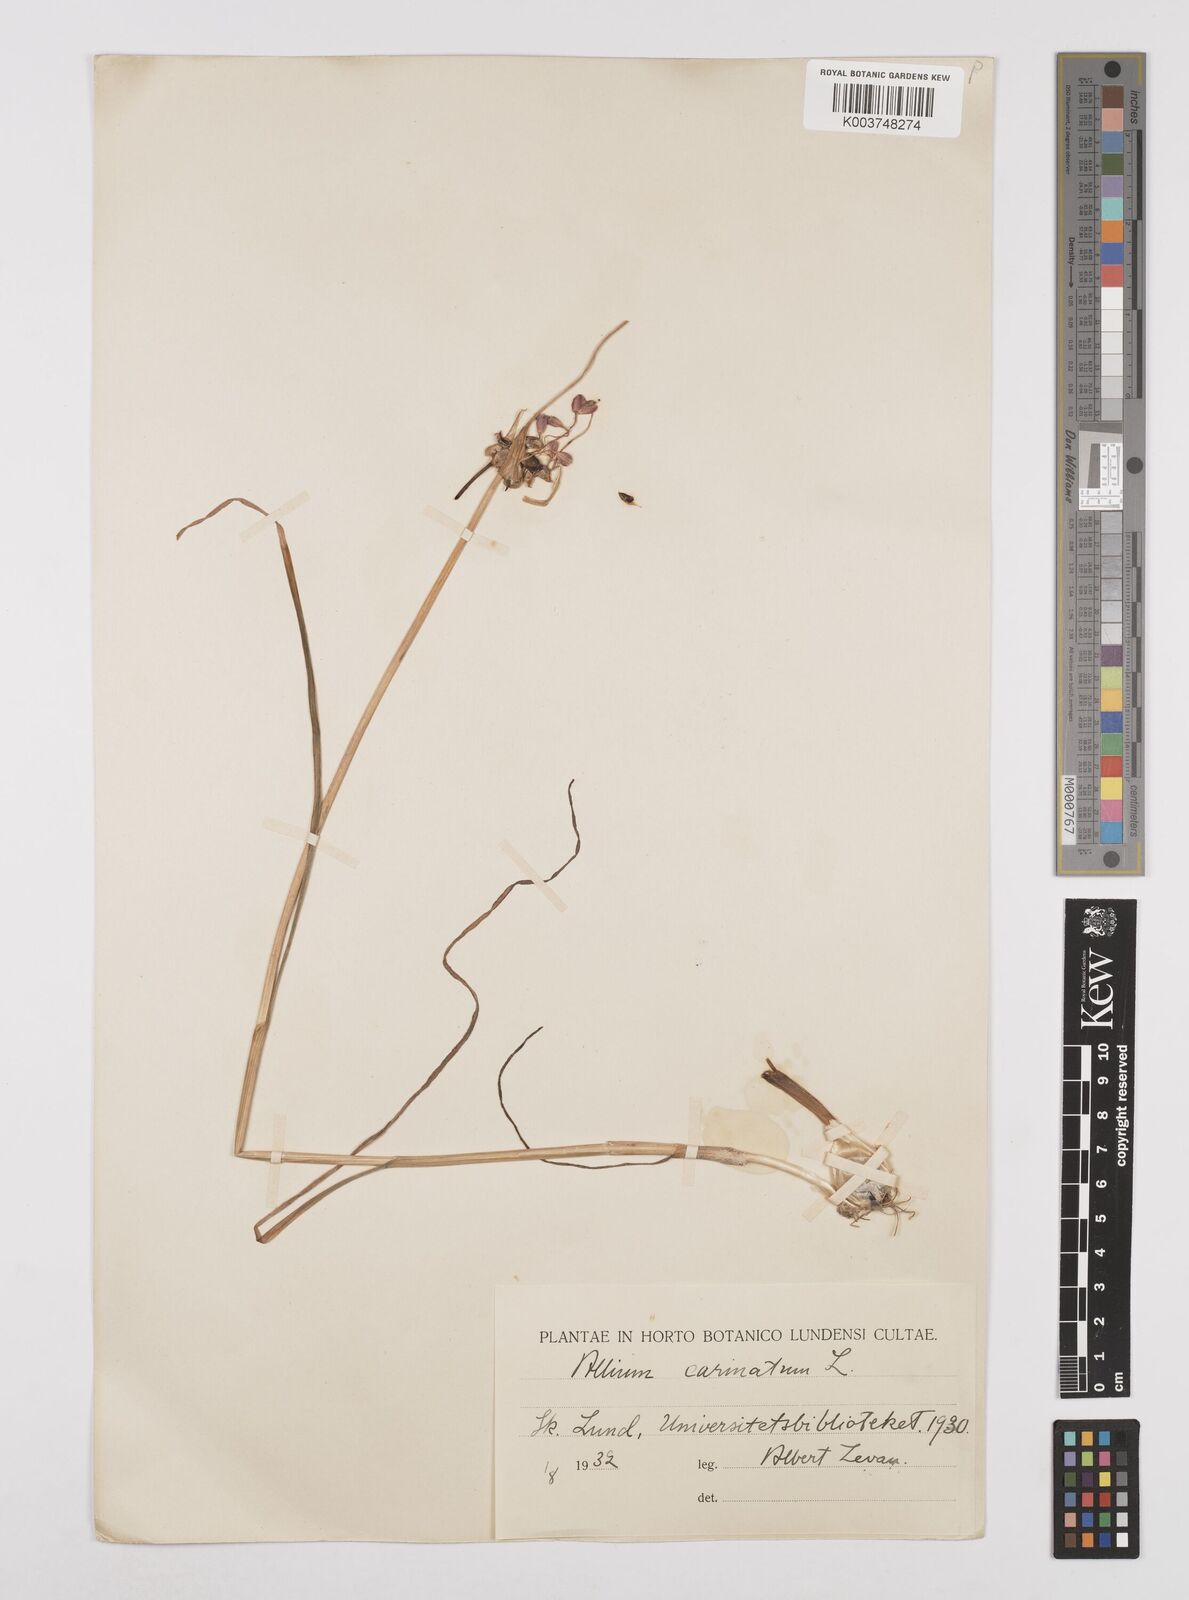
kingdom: Plantae
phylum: Tracheophyta
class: Liliopsida
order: Asparagales
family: Amaryllidaceae
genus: Allium
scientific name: Allium carinatum
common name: Keeled garlic
